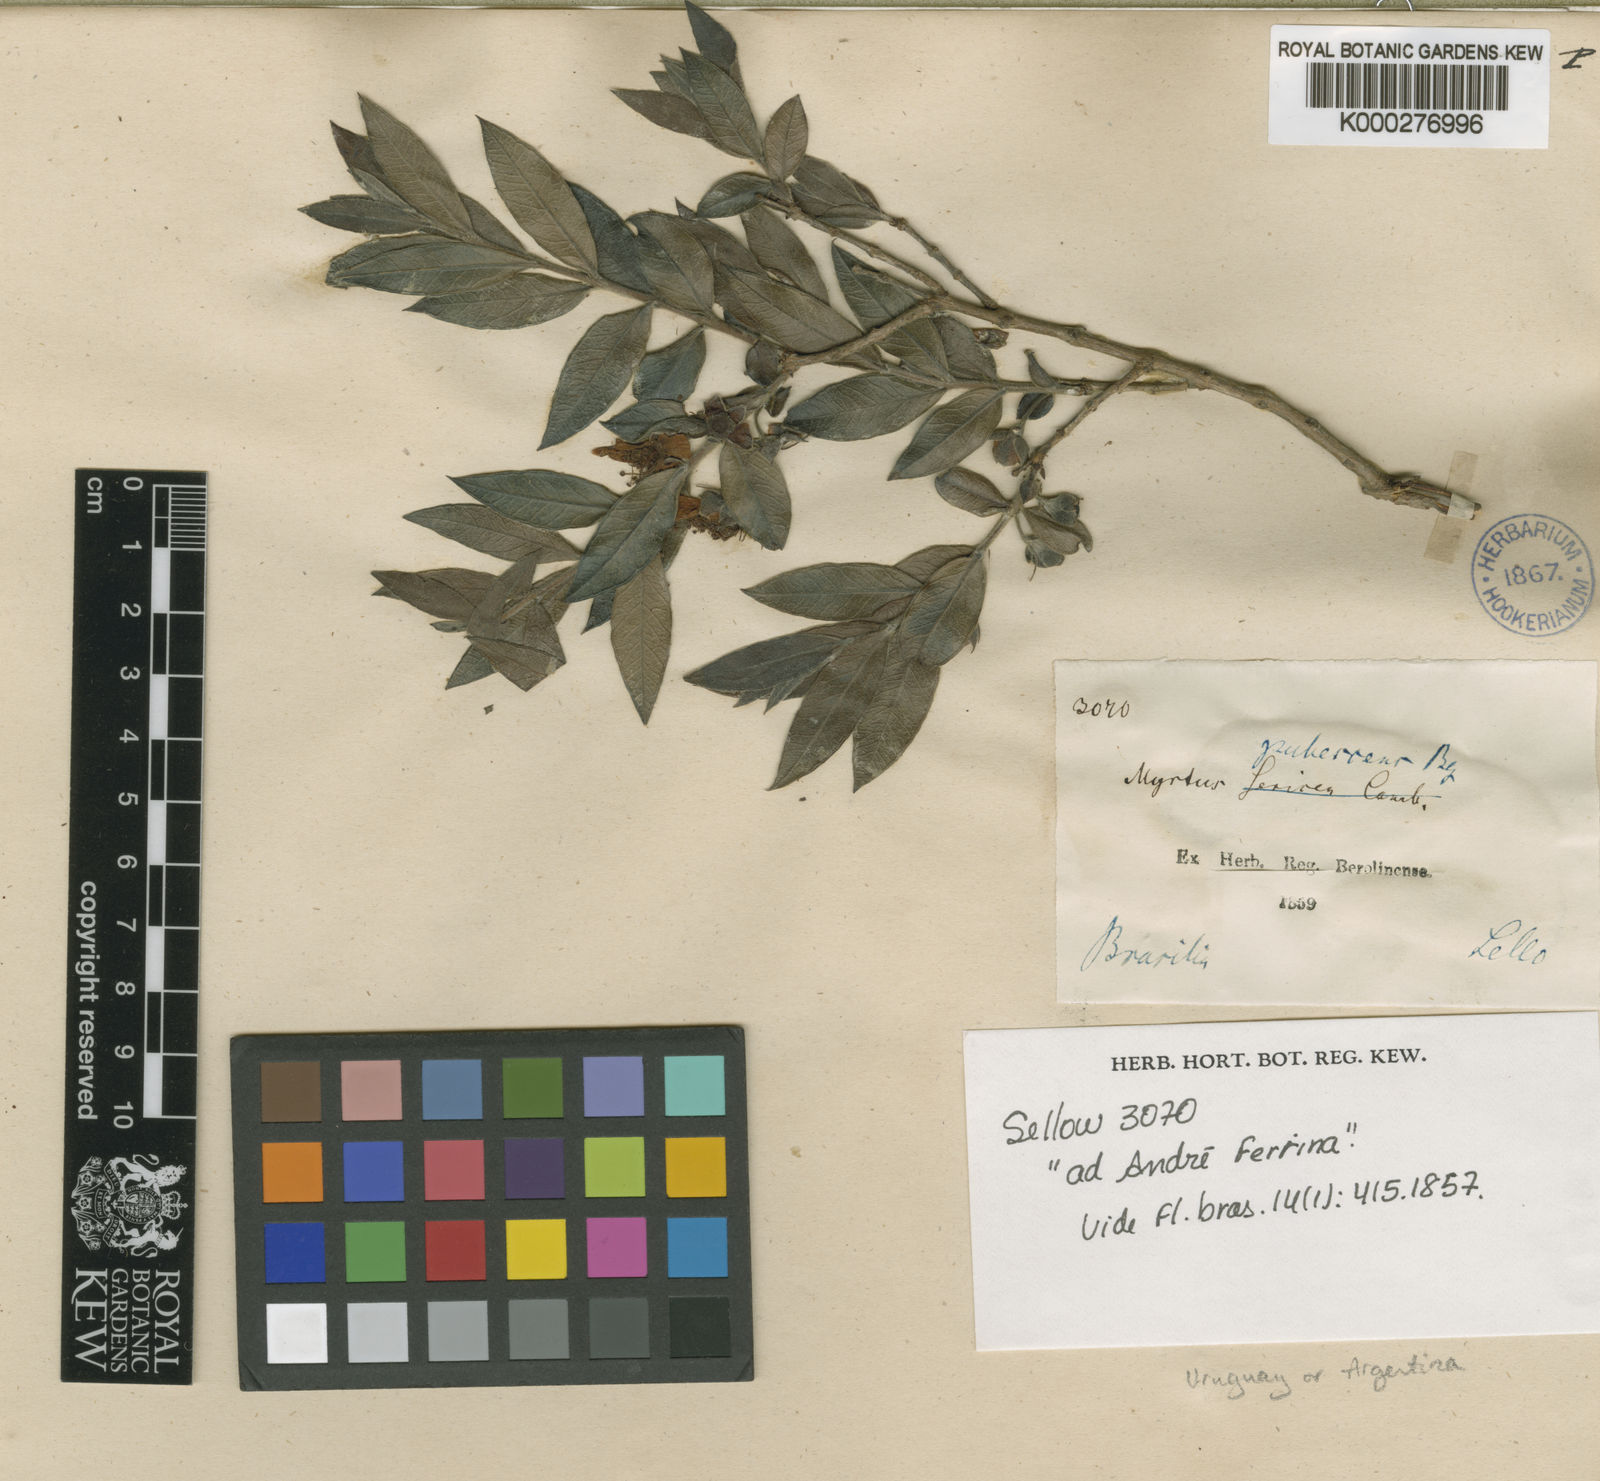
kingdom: Plantae
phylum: Tracheophyta
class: Magnoliopsida
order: Myrtales
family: Myrtaceae
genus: Psidium
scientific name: Psidium salutare
